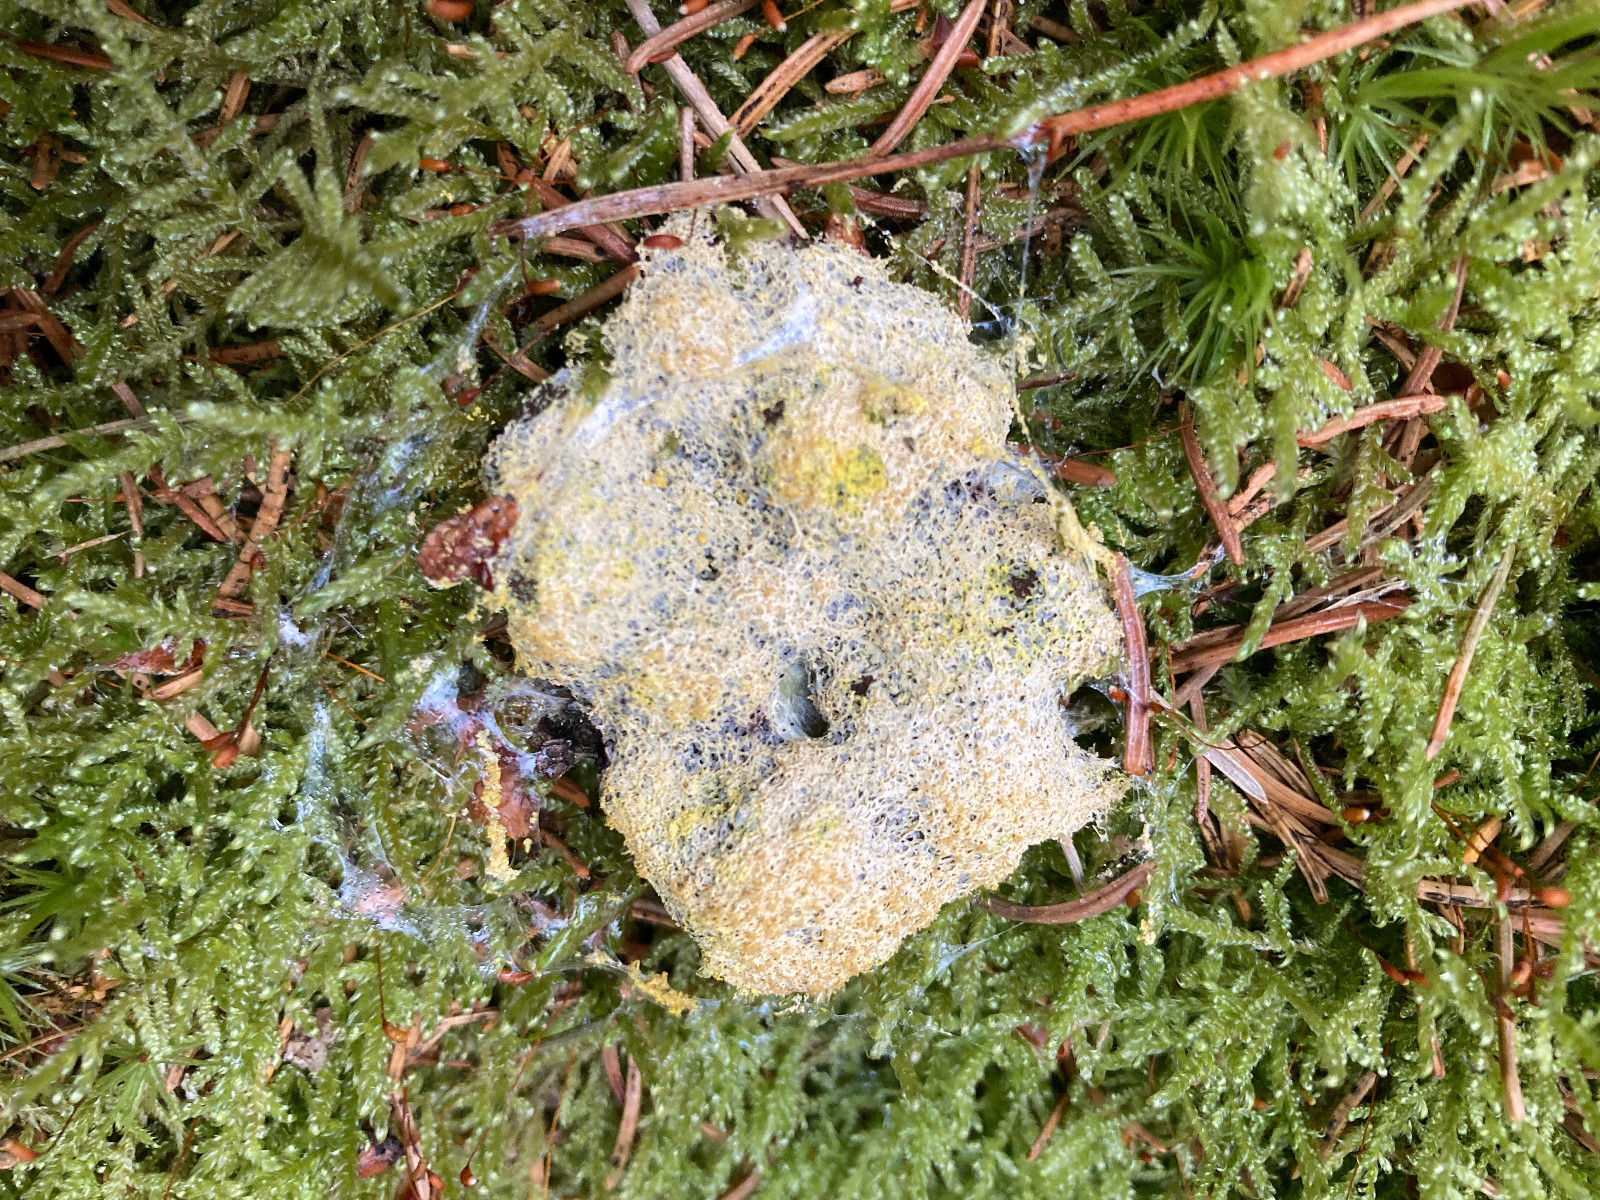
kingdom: Protozoa
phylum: Mycetozoa
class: Myxomycetes
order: Physarales
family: Physaraceae
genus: Fuligo
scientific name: Fuligo septica
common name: gul troldsmør
